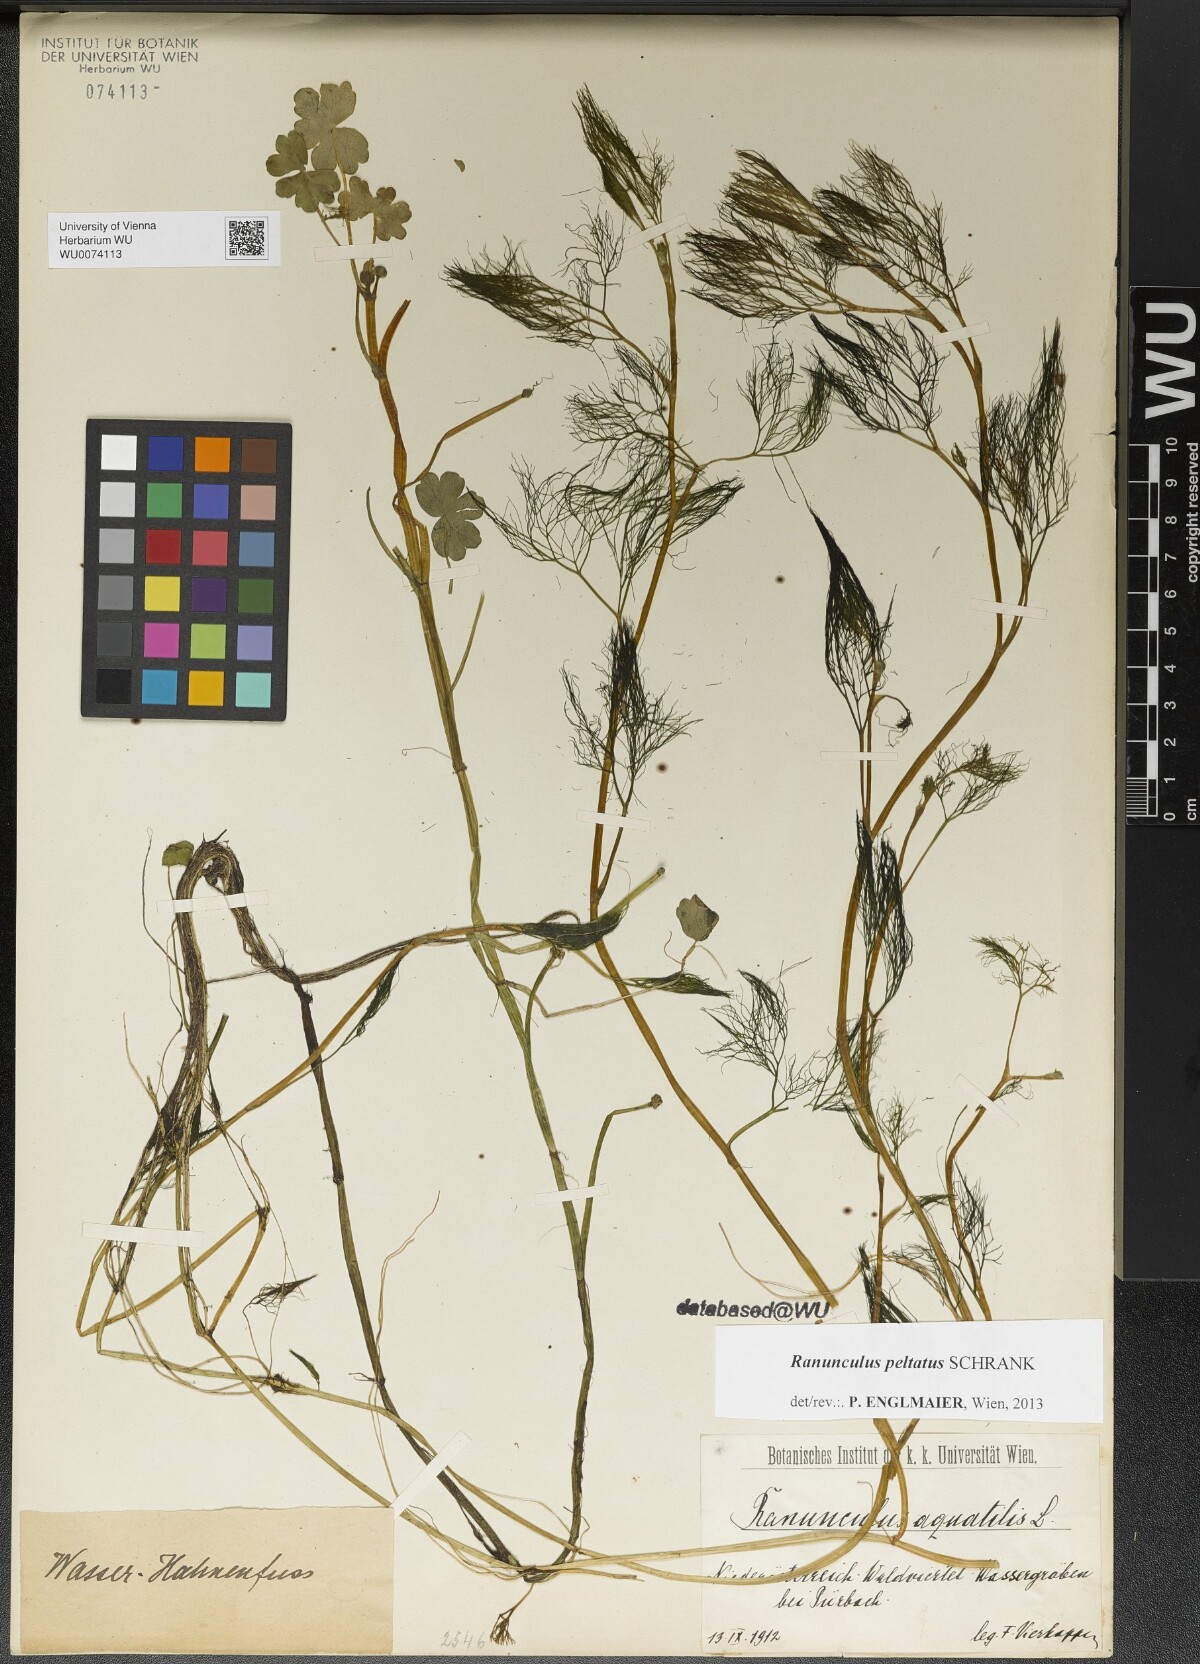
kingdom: Plantae
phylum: Tracheophyta
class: Magnoliopsida
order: Ranunculales
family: Ranunculaceae
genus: Ranunculus
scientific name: Ranunculus peltatus
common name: Pond water-crowfoot
